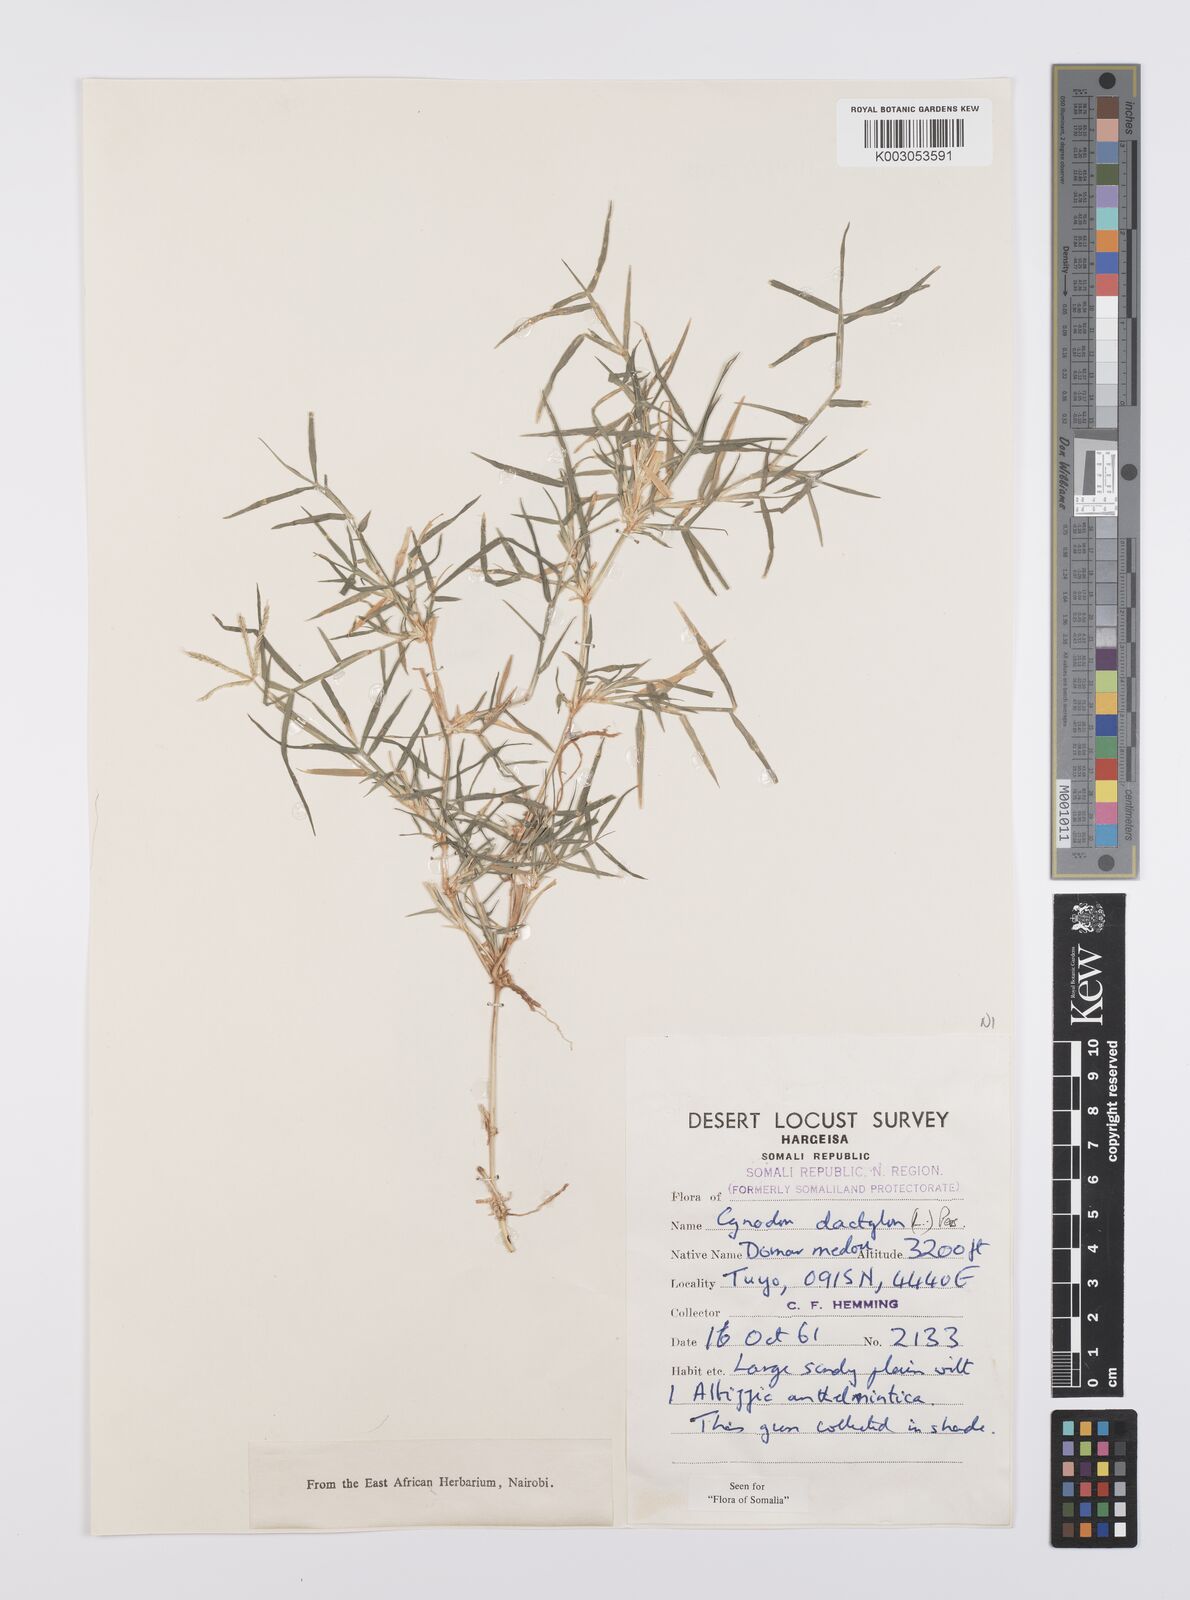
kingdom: Plantae
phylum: Tracheophyta
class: Liliopsida
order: Poales
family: Poaceae
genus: Cynodon
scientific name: Cynodon dactylon
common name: Bermuda grass
